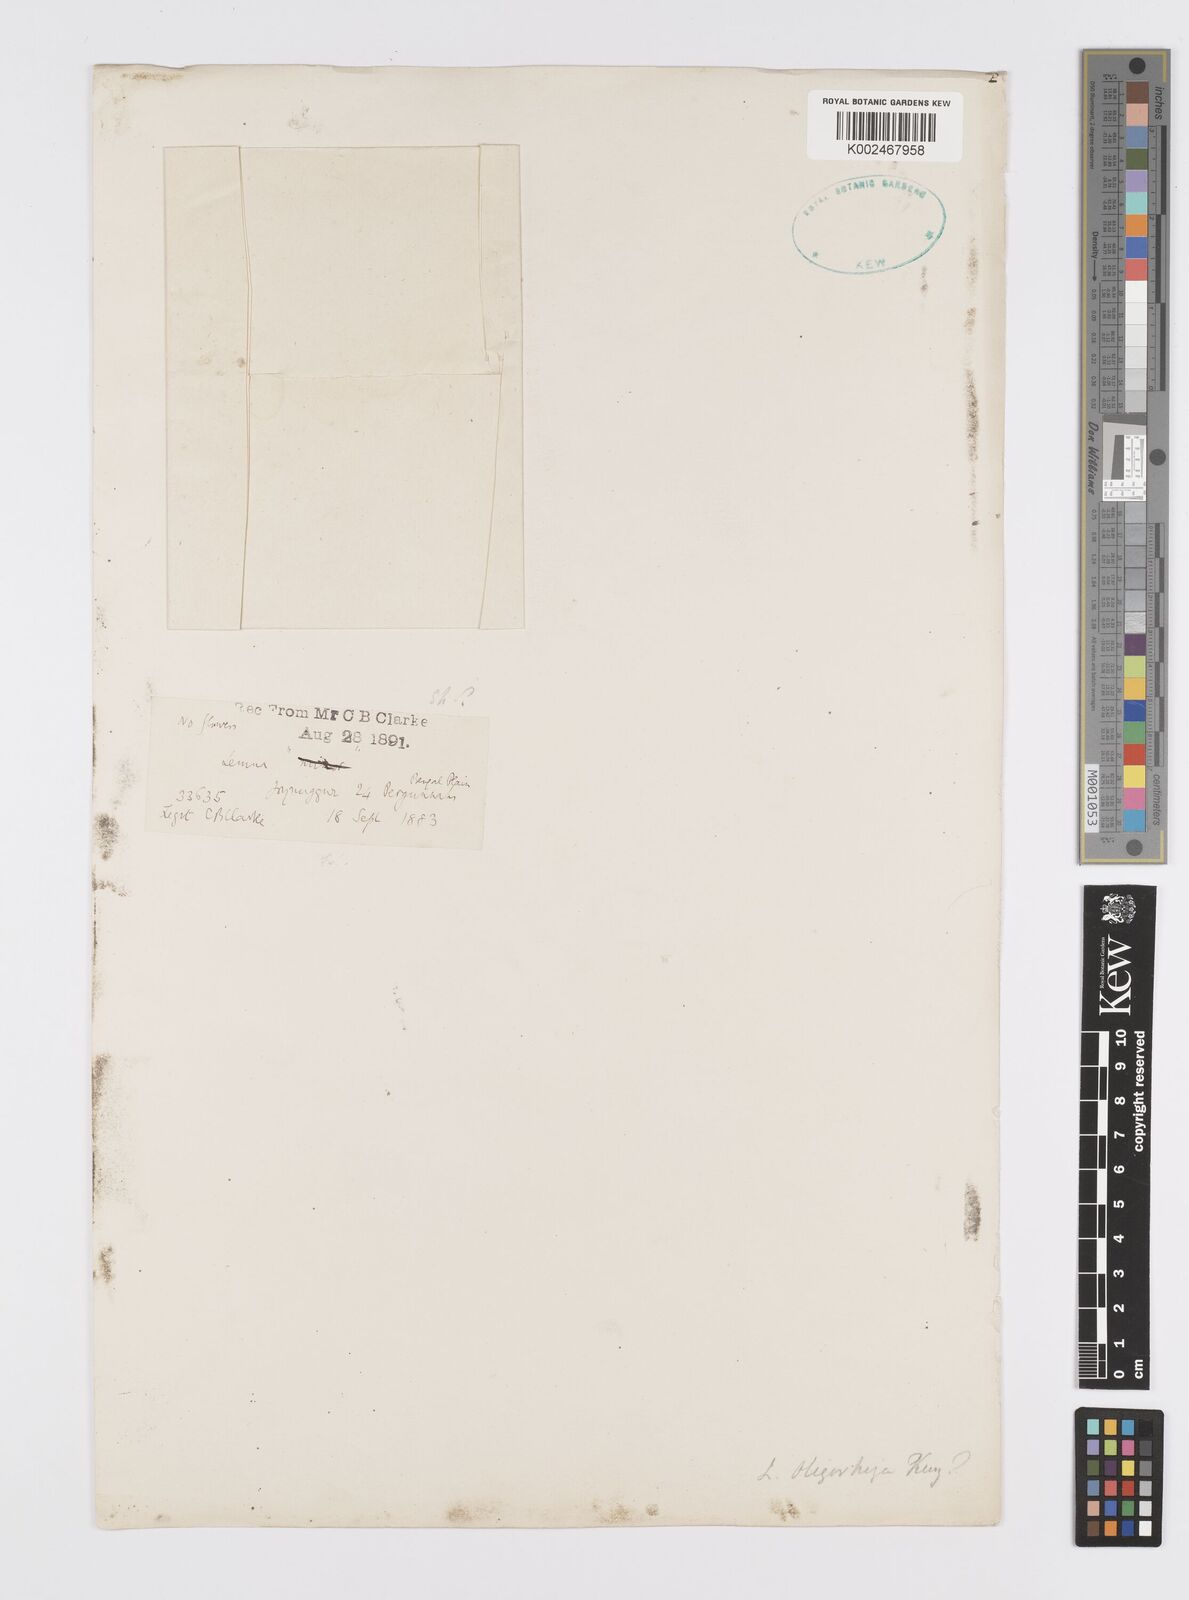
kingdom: Plantae
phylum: Tracheophyta
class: Liliopsida
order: Alismatales
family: Araceae
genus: Lemna
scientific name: Lemna
